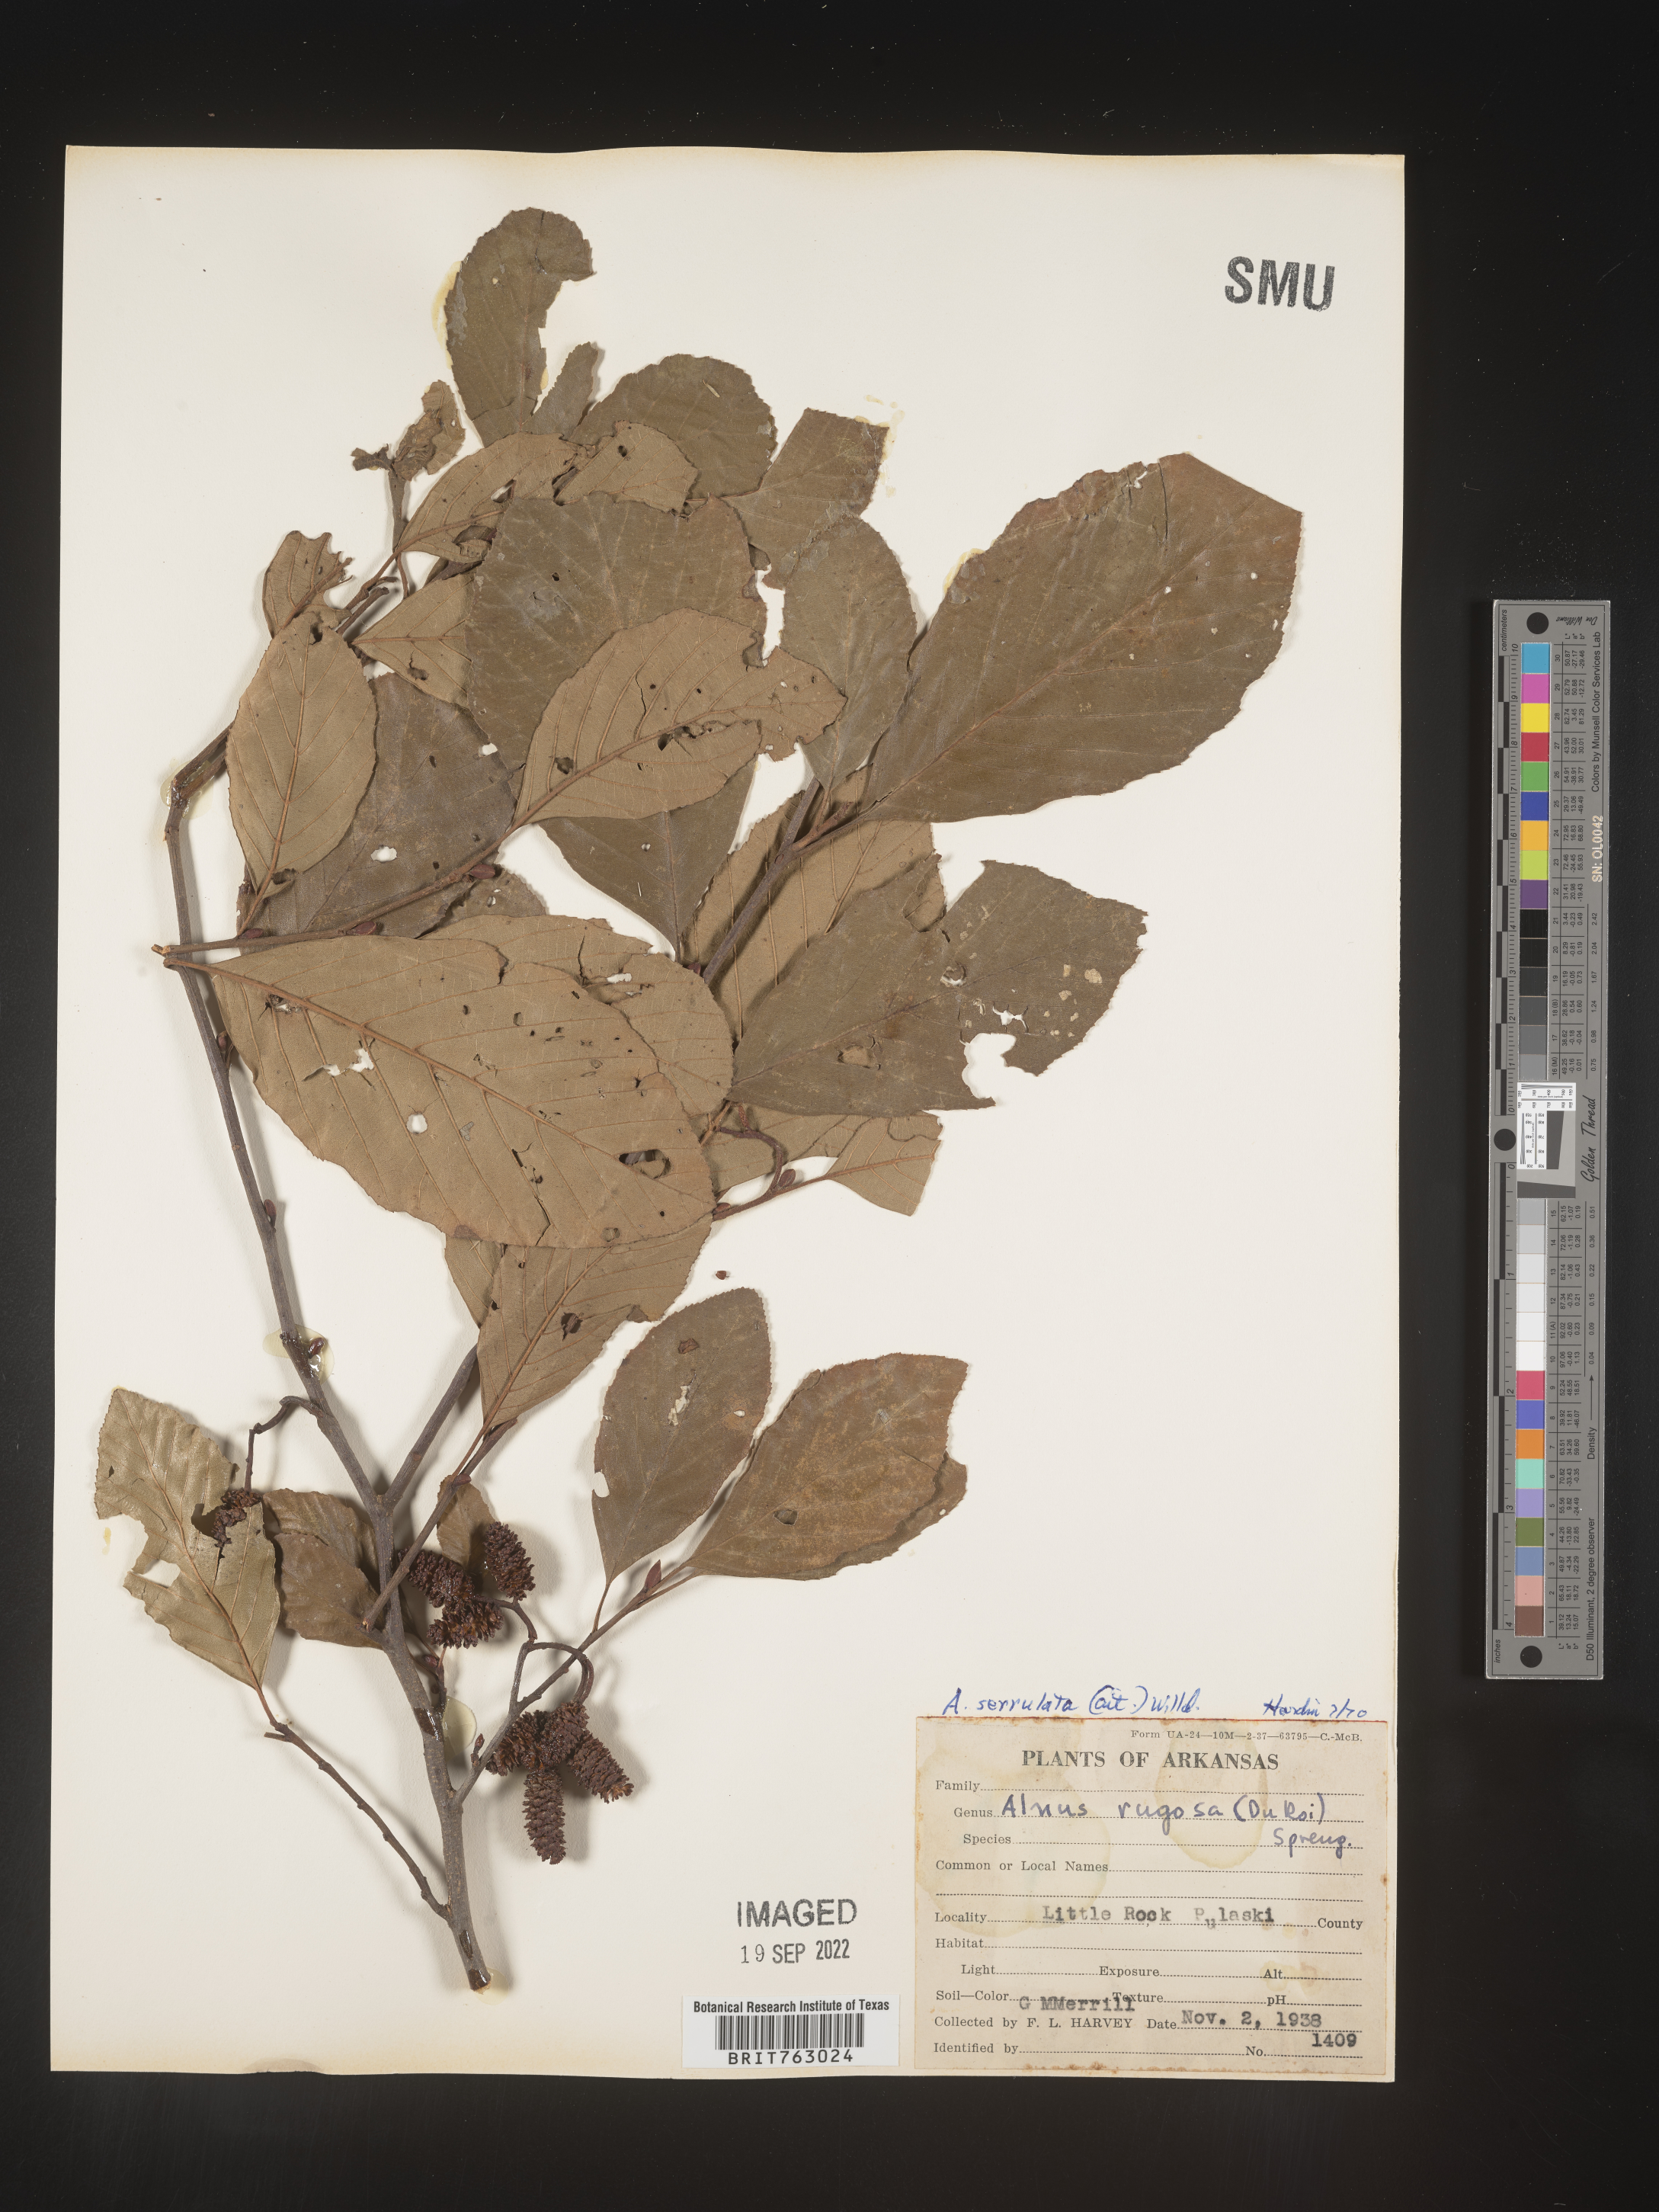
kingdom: Plantae
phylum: Tracheophyta
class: Magnoliopsida
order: Fagales
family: Betulaceae
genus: Alnus
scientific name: Alnus serrulata
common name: Hazel alder
